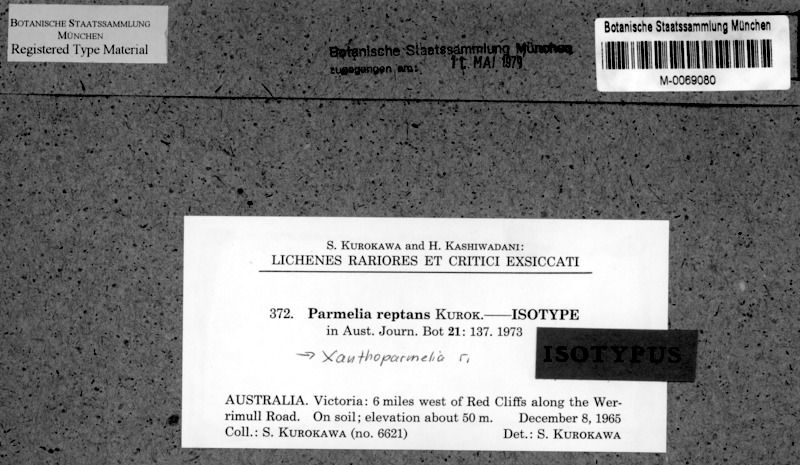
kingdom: Fungi
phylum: Ascomycota
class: Lecanoromycetes
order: Lecanorales
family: Parmeliaceae
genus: Xanthoparmelia
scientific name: Xanthoparmelia reptans
